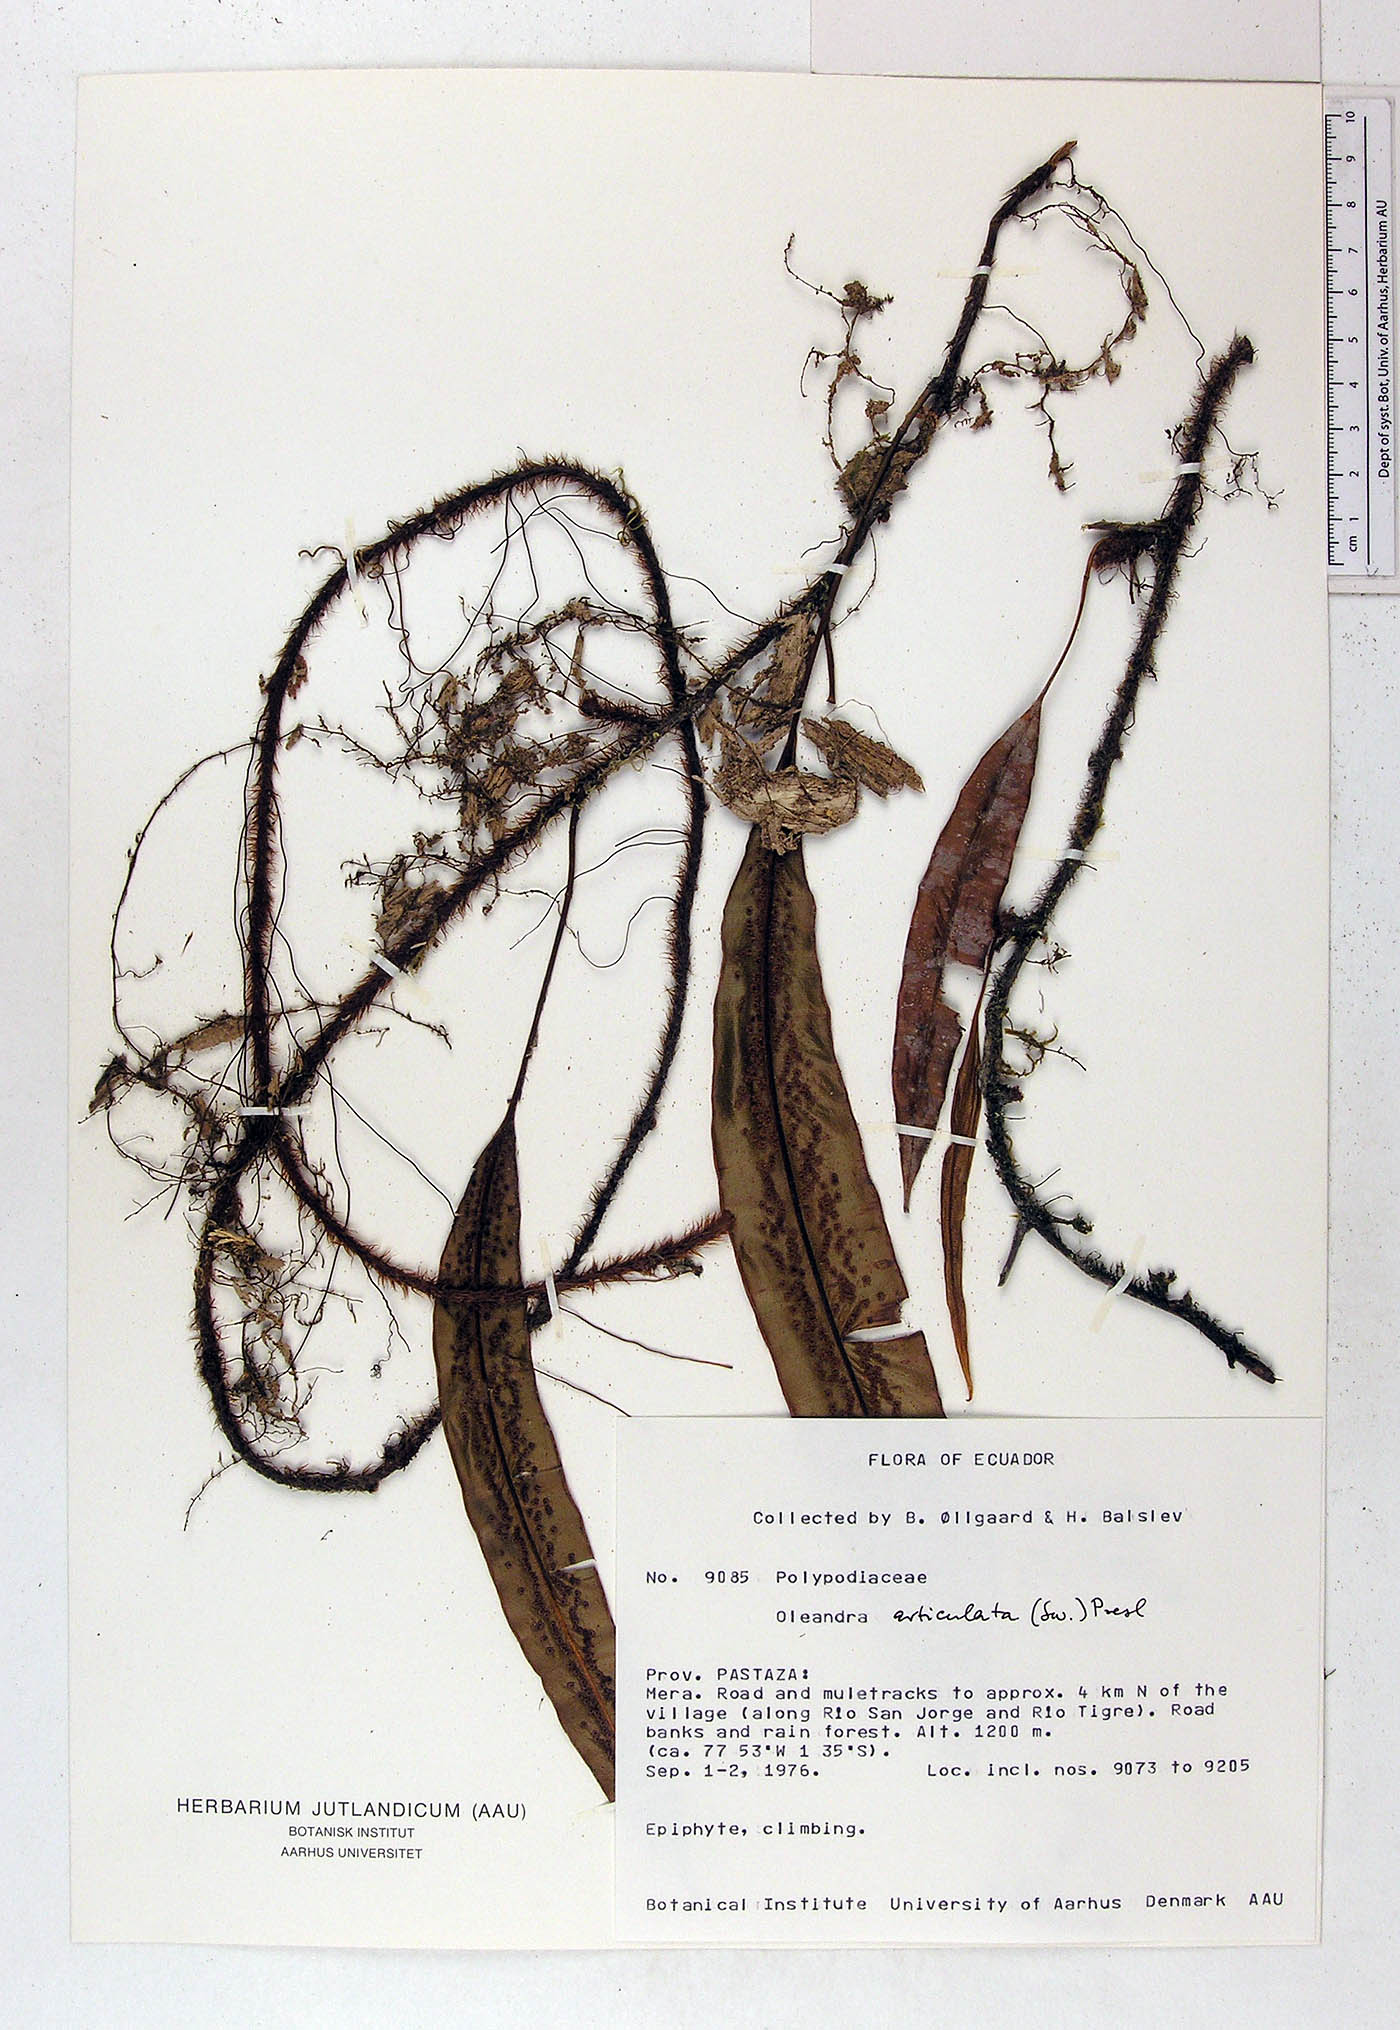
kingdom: Plantae
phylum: Tracheophyta
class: Polypodiopsida
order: Polypodiales
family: Oleandraceae
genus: Oleandra
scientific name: Oleandra articulata
